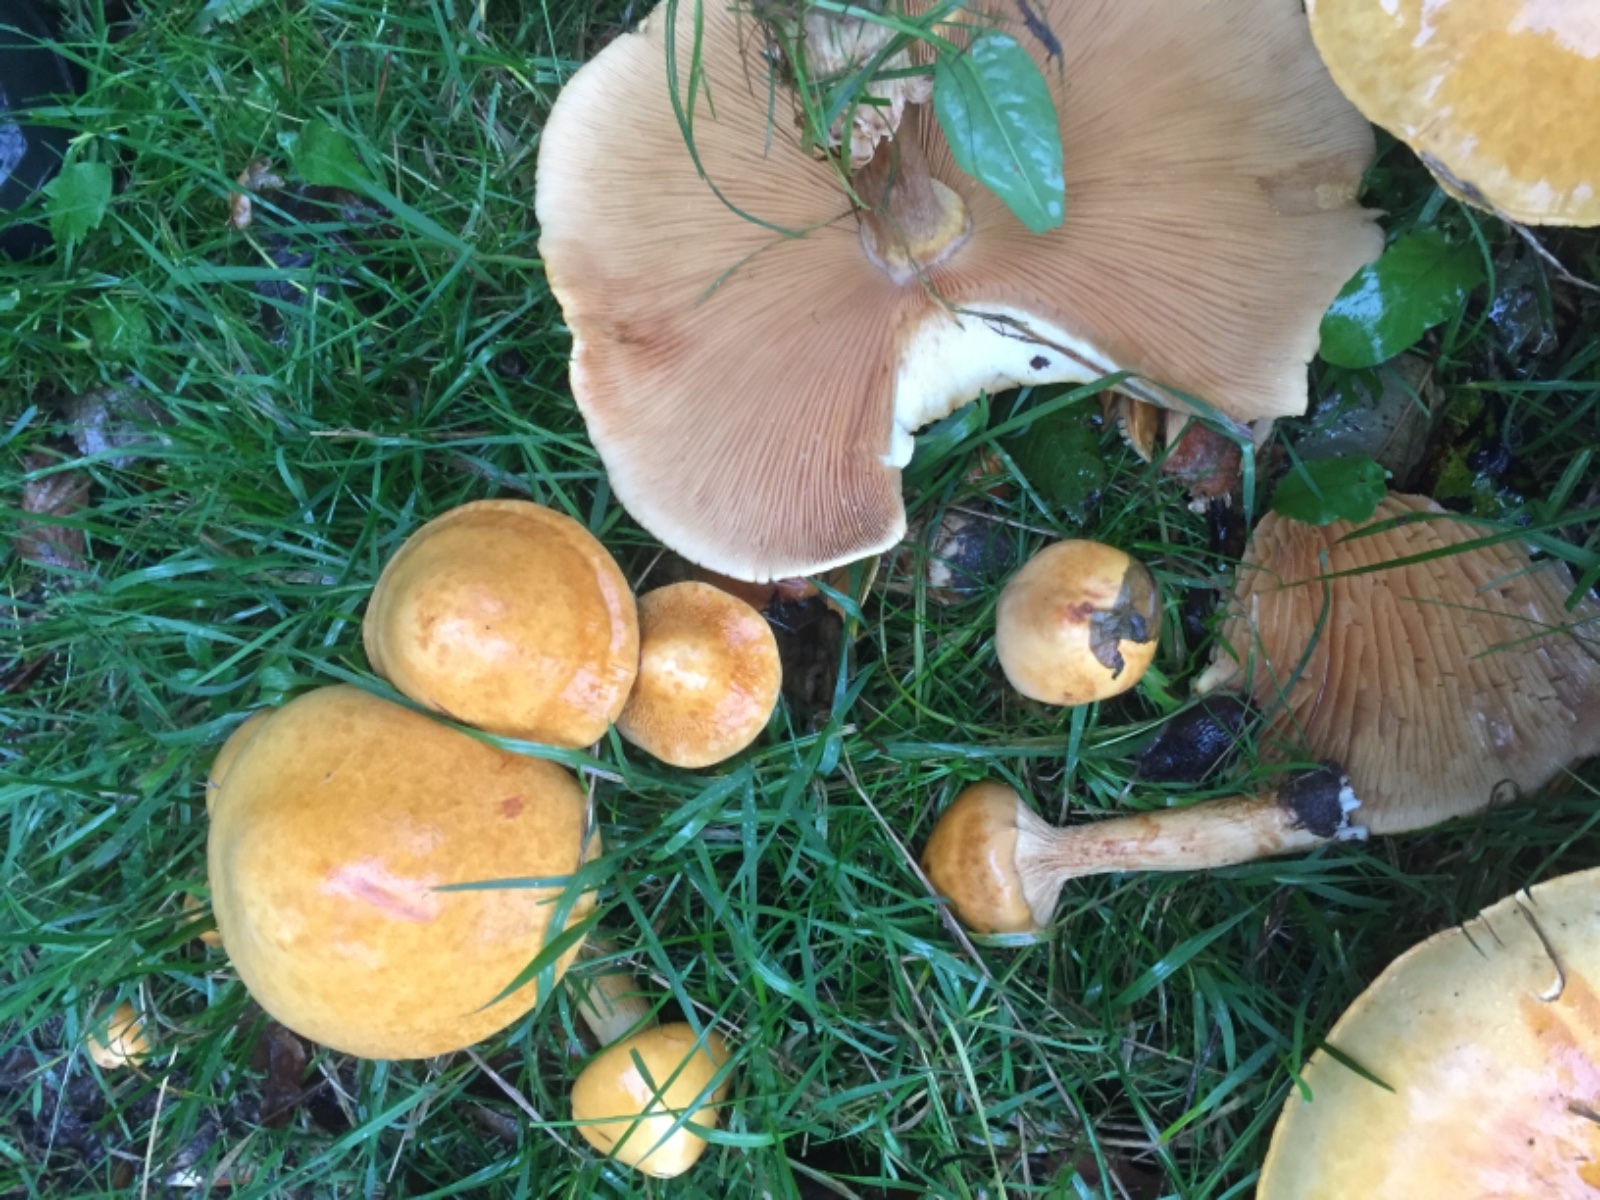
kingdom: Fungi
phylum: Basidiomycota
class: Agaricomycetes
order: Agaricales
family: Tricholomataceae
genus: Phaeolepiota
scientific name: Phaeolepiota aurea
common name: gyldenhat
